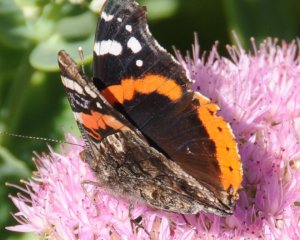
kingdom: Animalia
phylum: Arthropoda
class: Insecta
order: Lepidoptera
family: Nymphalidae
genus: Vanessa
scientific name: Vanessa atalanta
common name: Red Admiral
